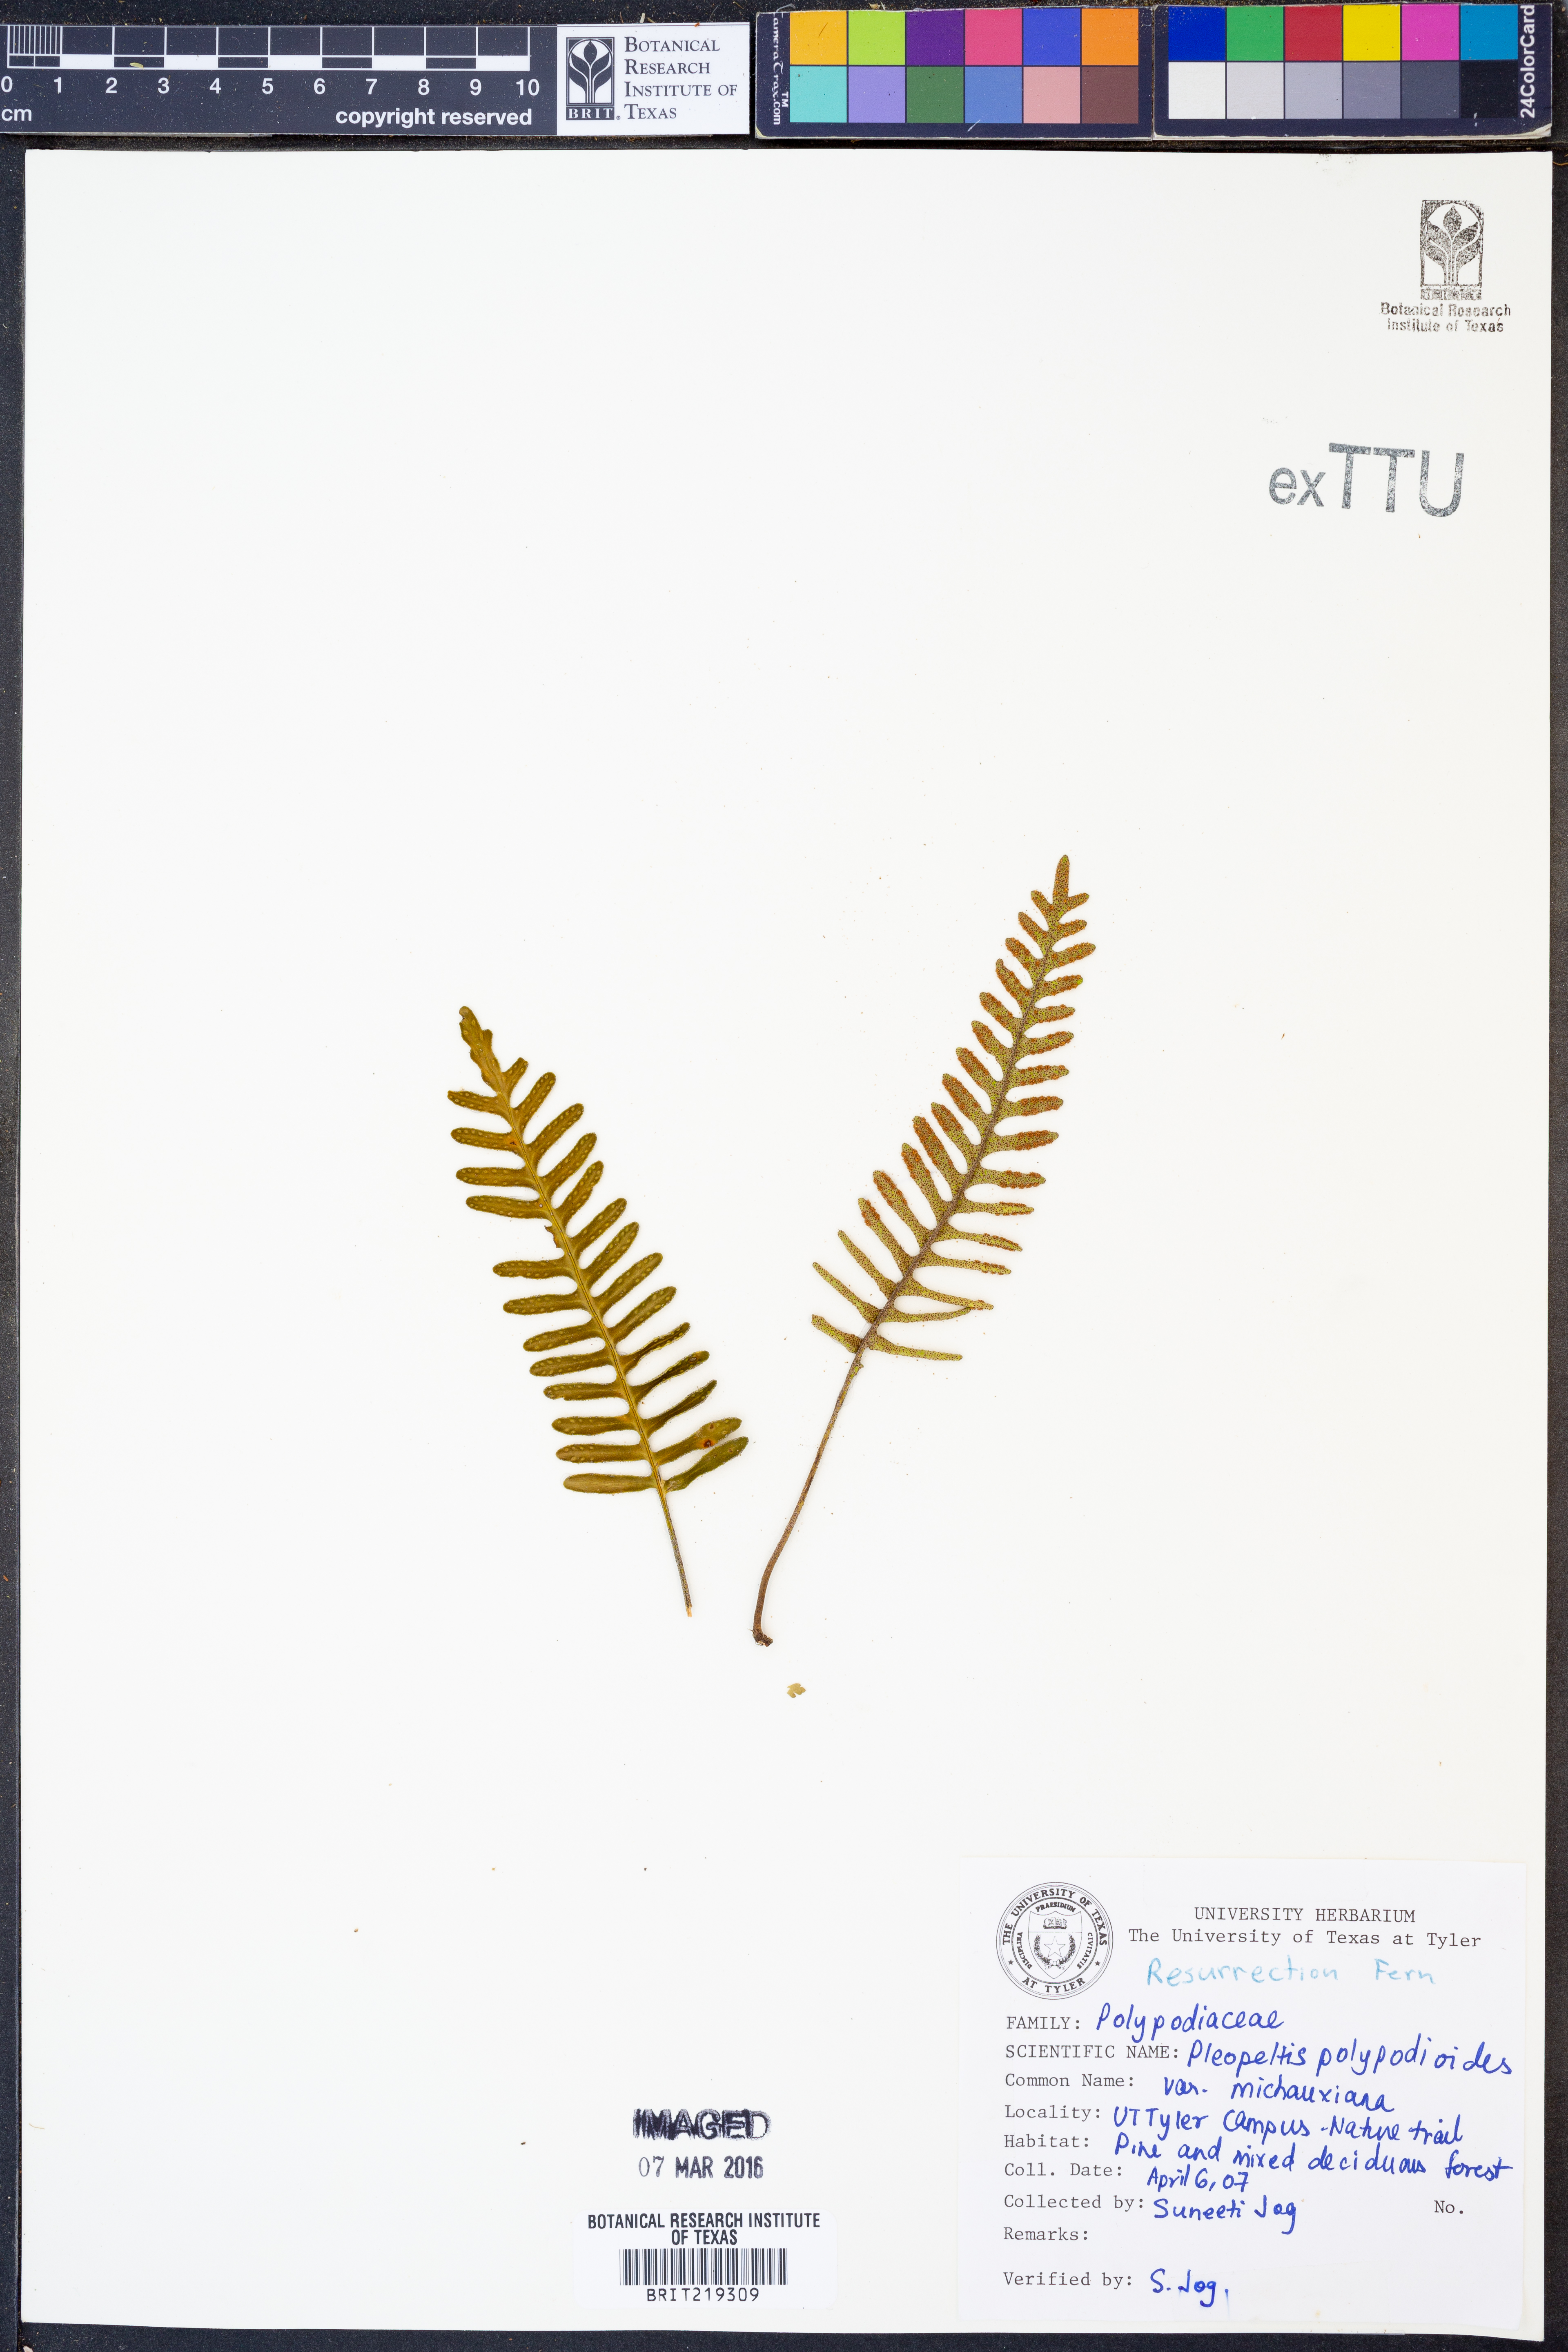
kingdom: Plantae
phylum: Tracheophyta
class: Polypodiopsida
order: Polypodiales
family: Polypodiaceae
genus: Pleopeltis
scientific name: Pleopeltis michauxiana
